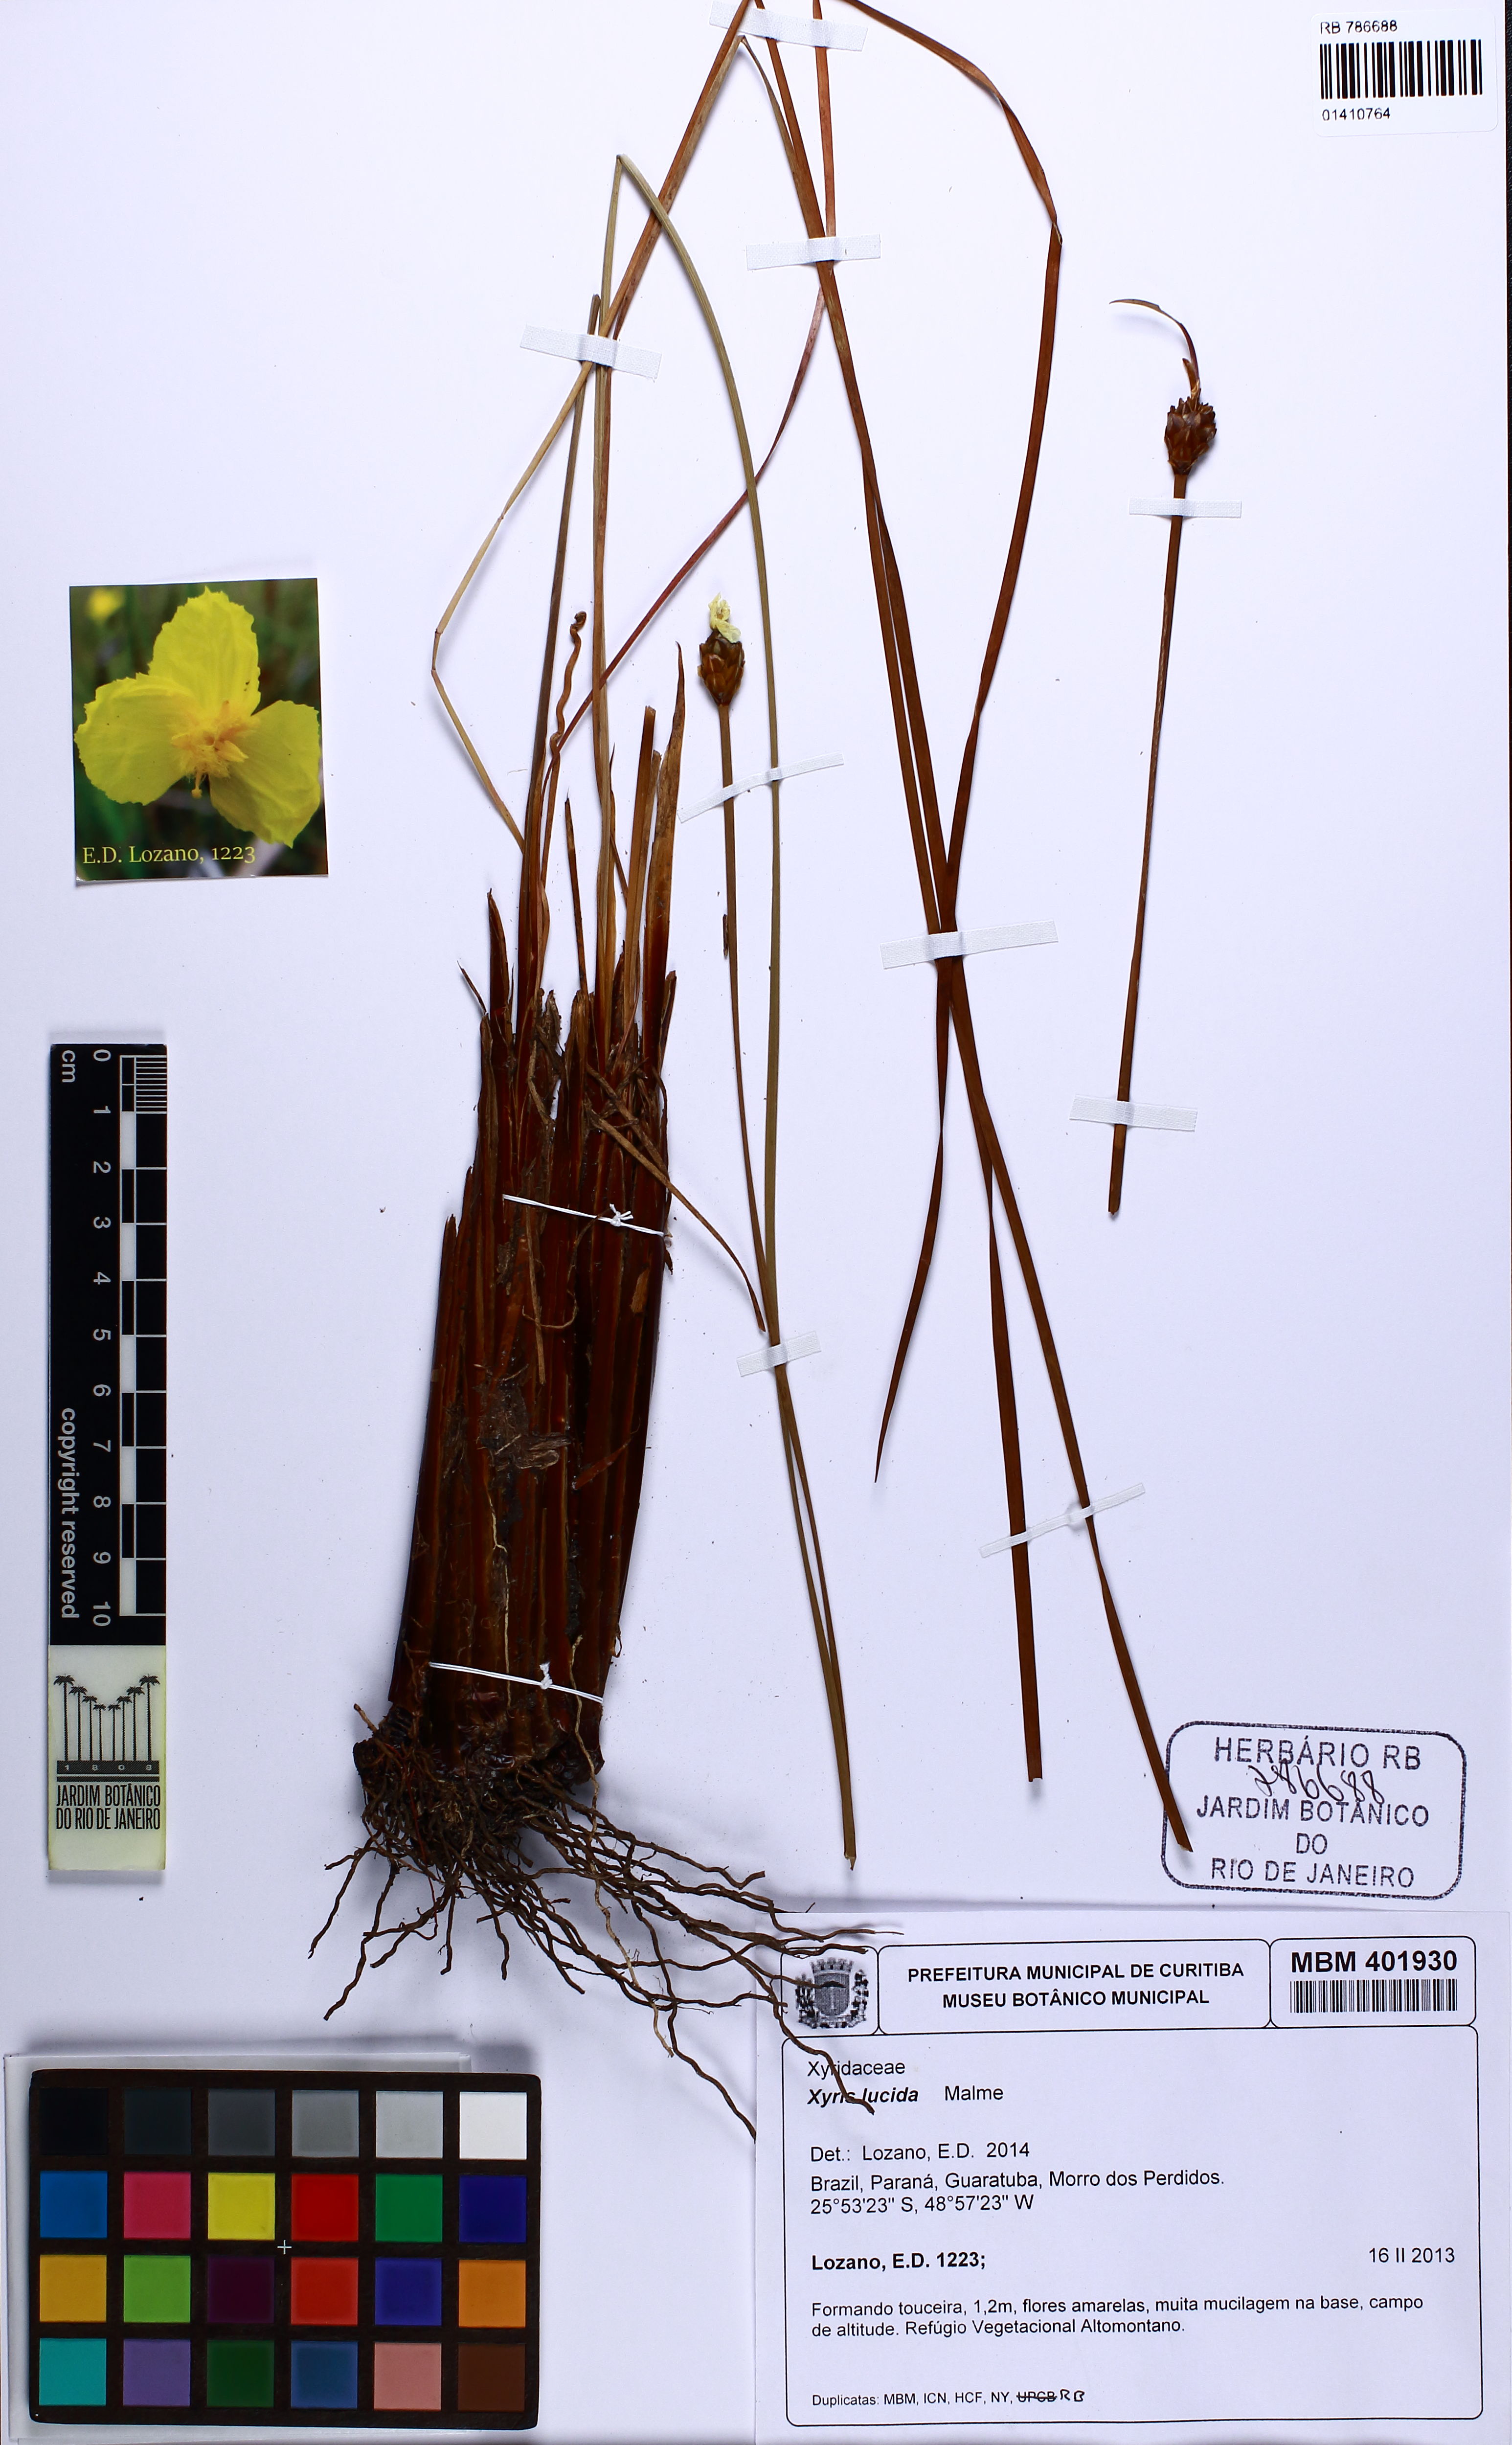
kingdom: Plantae
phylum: Tracheophyta
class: Liliopsida
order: Poales
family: Xyridaceae
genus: Xyris
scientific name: Xyris lucida
